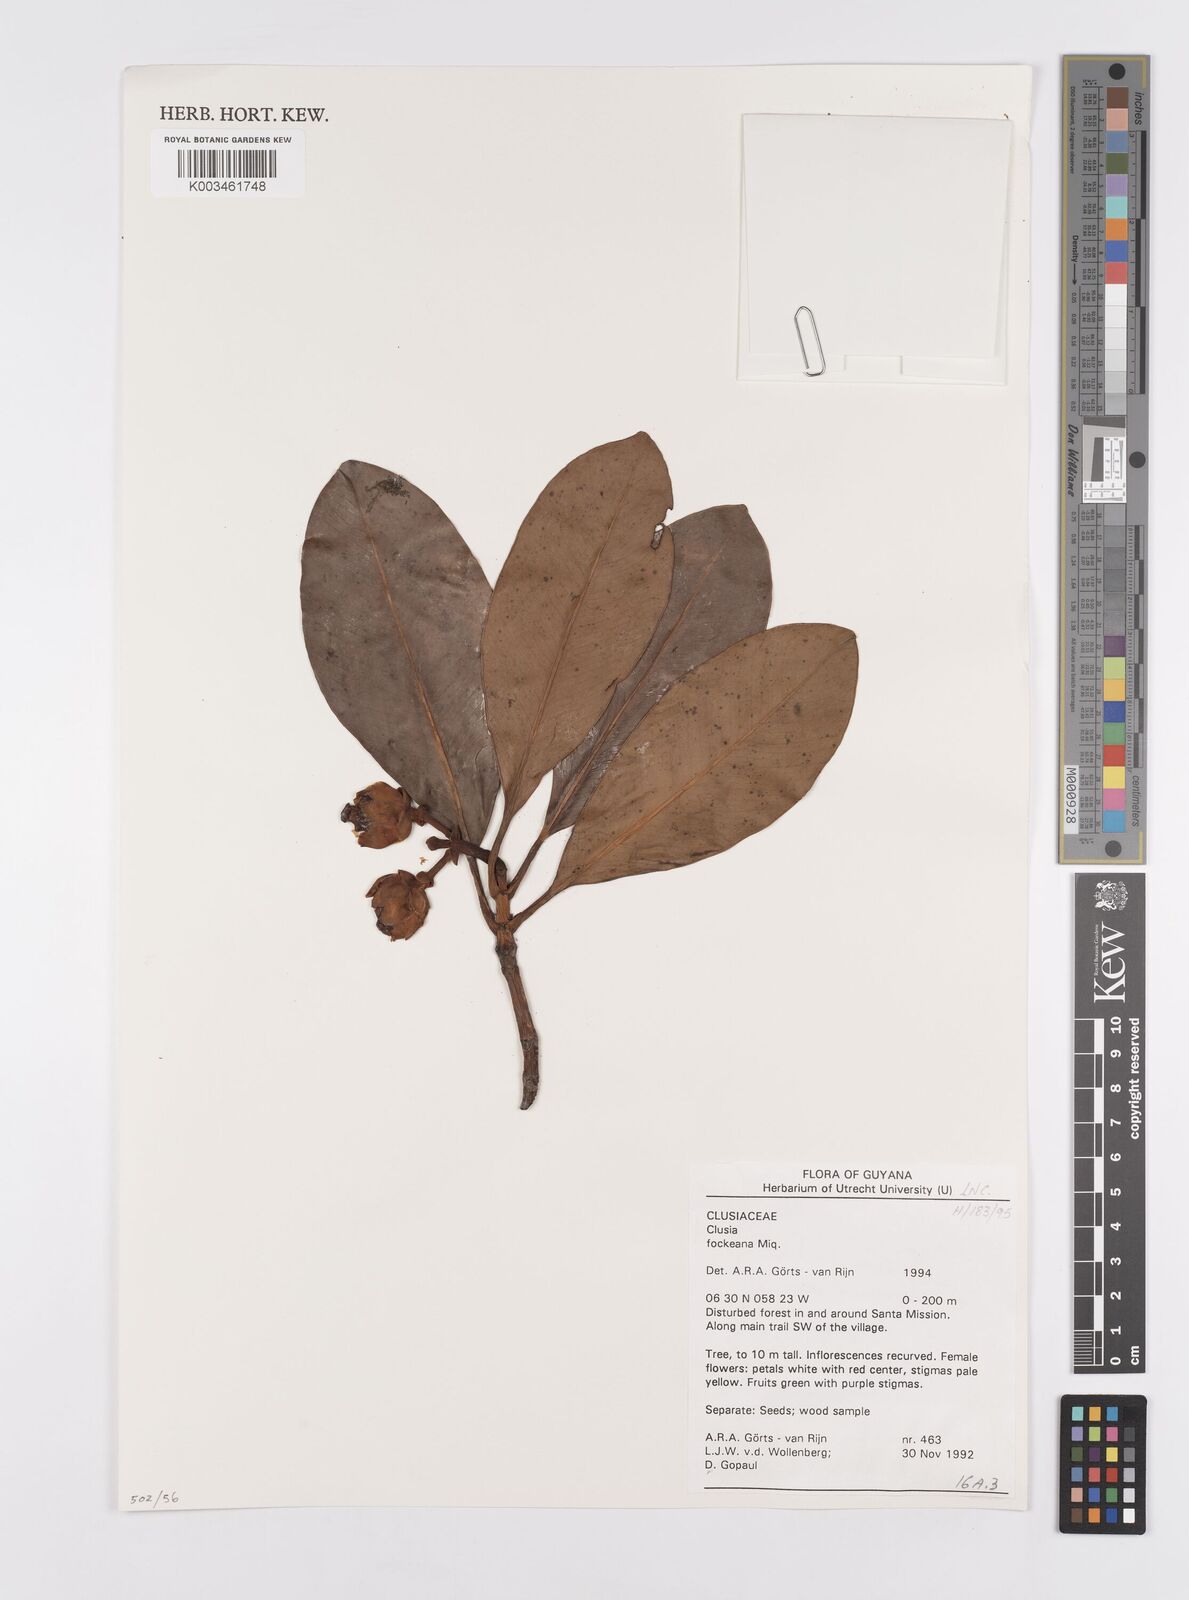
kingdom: Plantae
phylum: Tracheophyta
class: Magnoliopsida
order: Malpighiales
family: Clusiaceae
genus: Clusia
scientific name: Clusia fockeana
